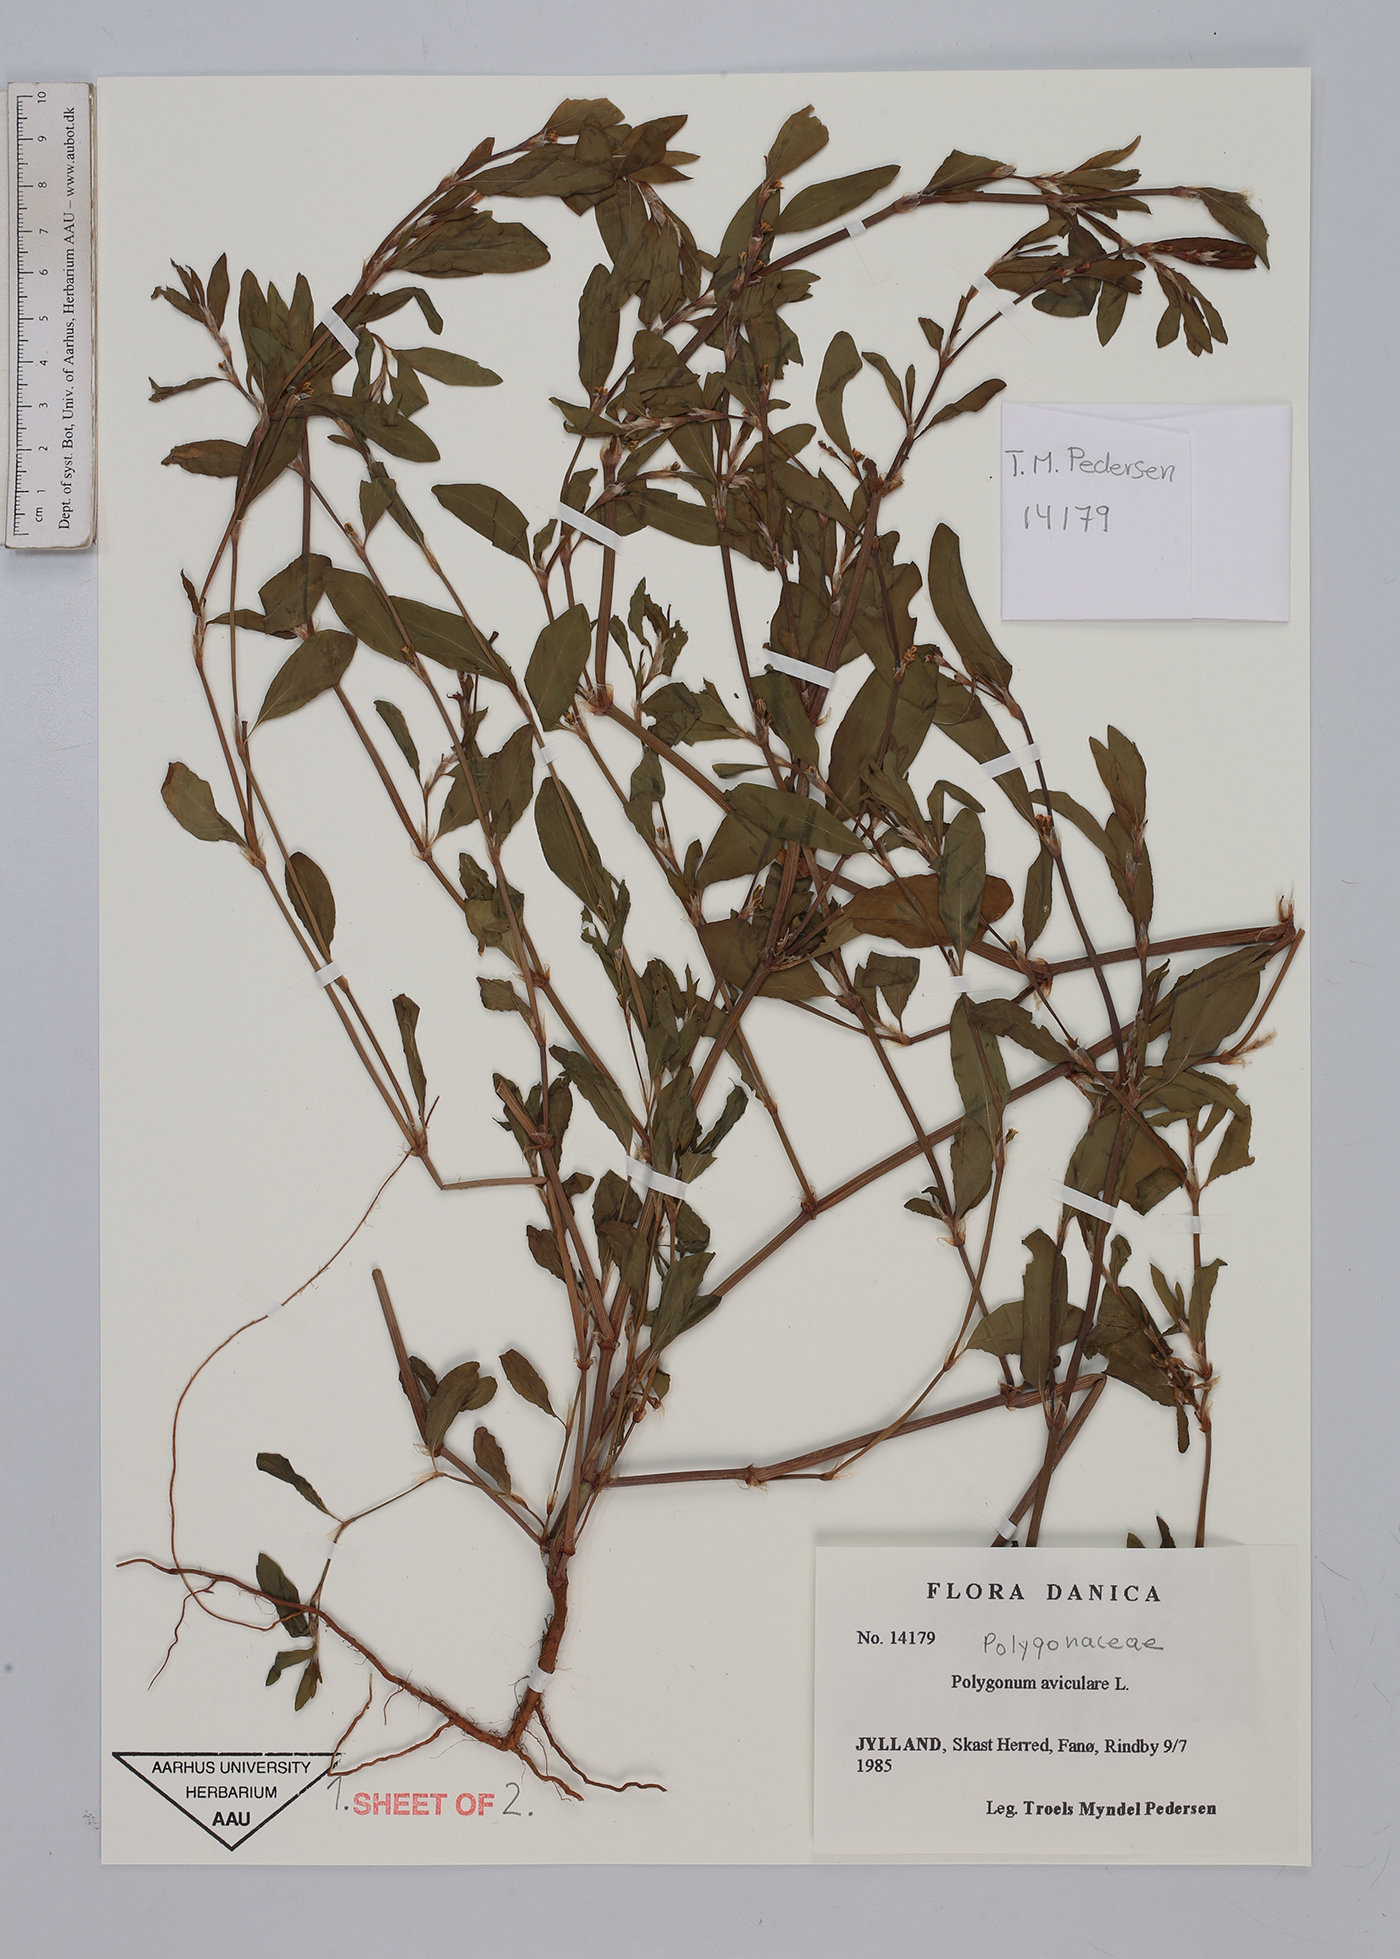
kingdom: Plantae
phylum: Tracheophyta
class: Magnoliopsida
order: Caryophyllales
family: Polygonaceae
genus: Polygonum
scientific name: Polygonum aviculare
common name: Prostrate knotweed
